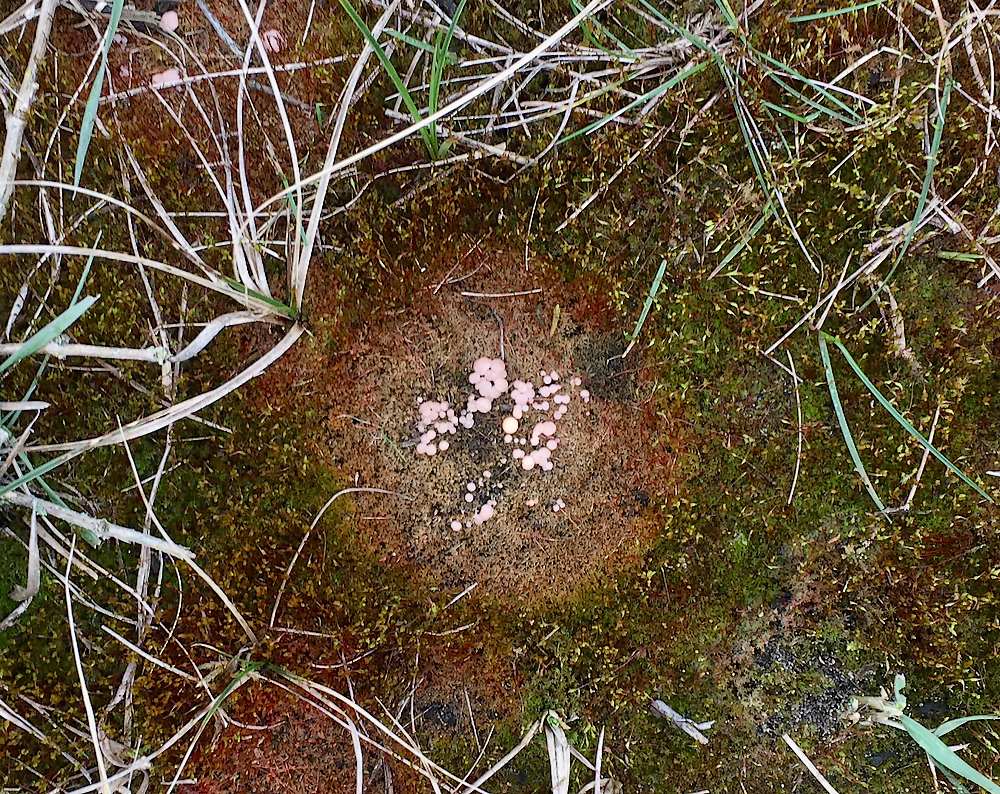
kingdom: Fungi
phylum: Ascomycota
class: Leotiomycetes
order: Helotiales
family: Hyaloscyphaceae
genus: Roseodiscus
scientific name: Roseodiscus formosus
